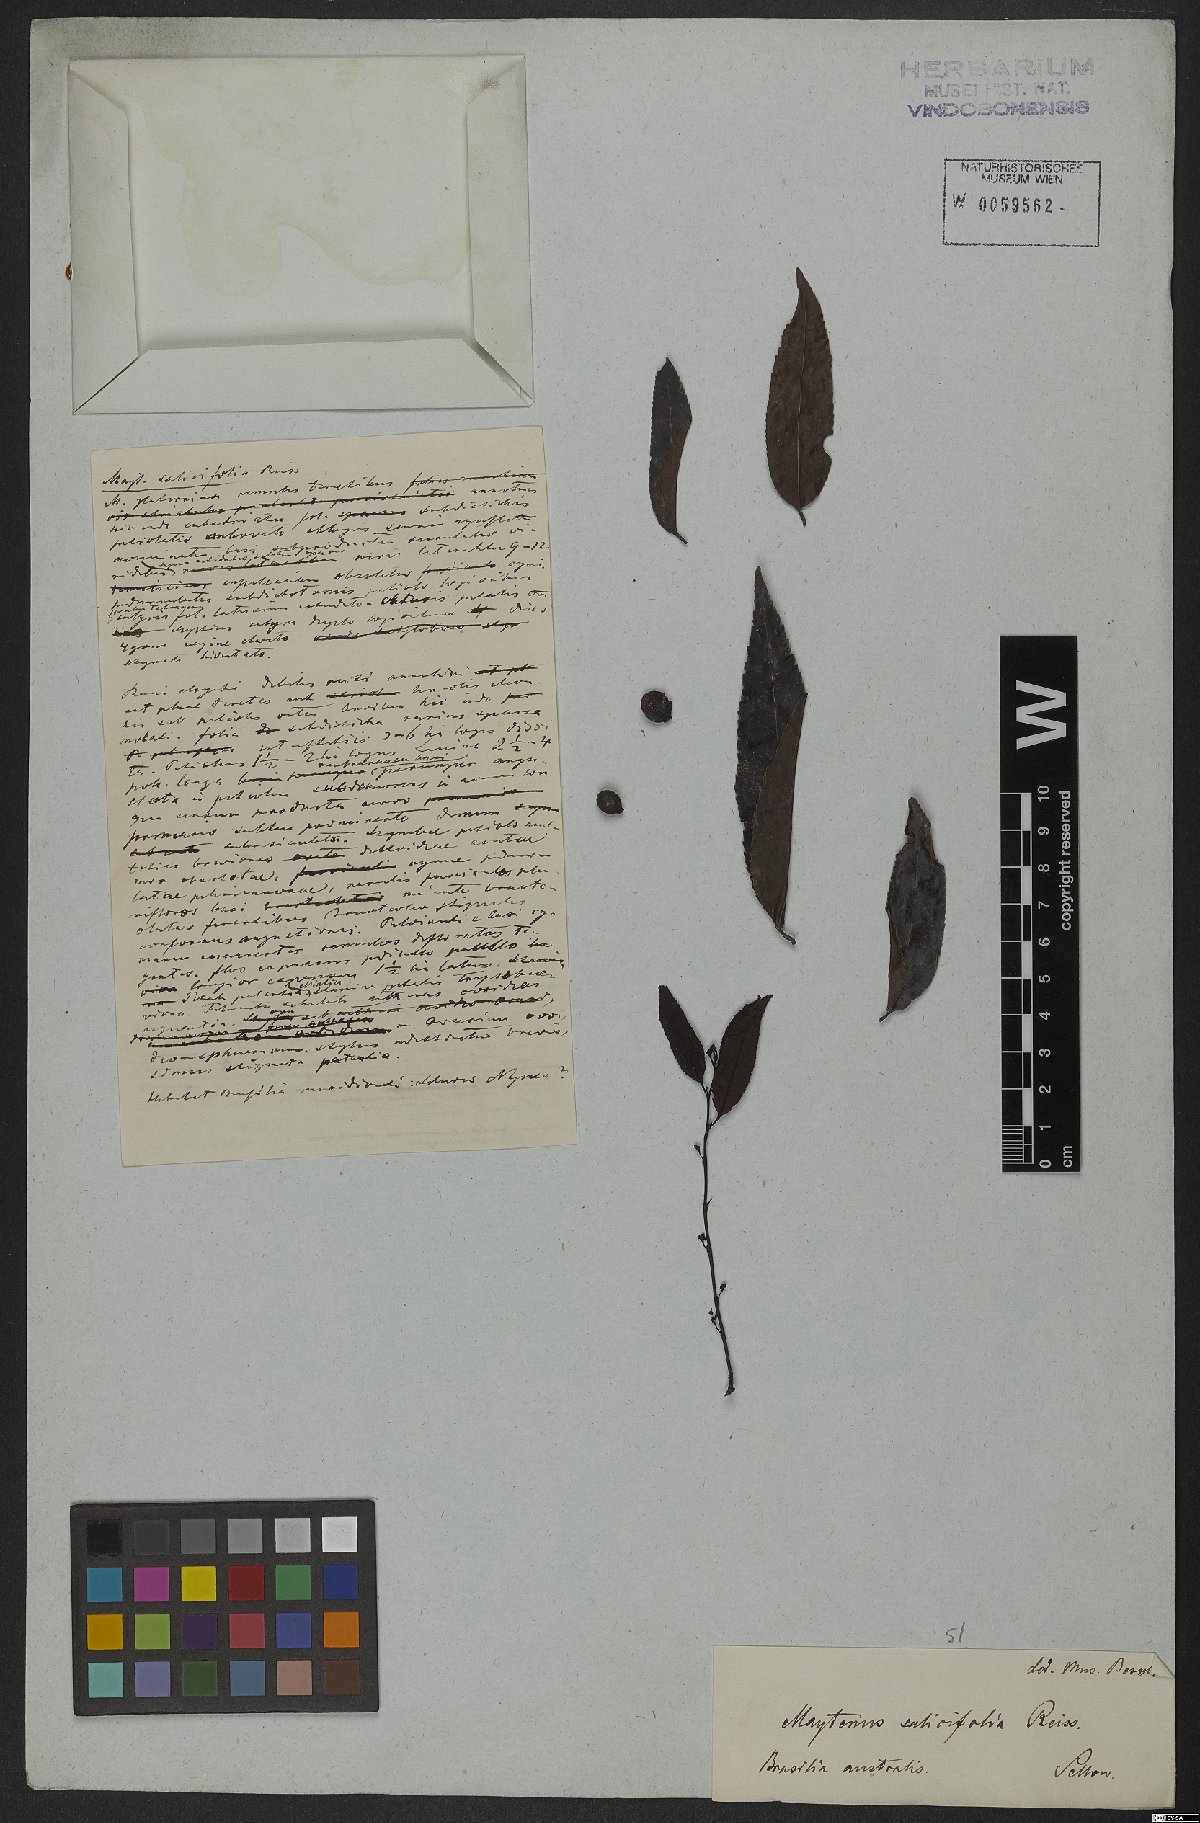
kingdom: Plantae
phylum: Tracheophyta
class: Magnoliopsida
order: Celastrales
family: Celastraceae
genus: Maytenus
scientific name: Maytenus salicifolia
